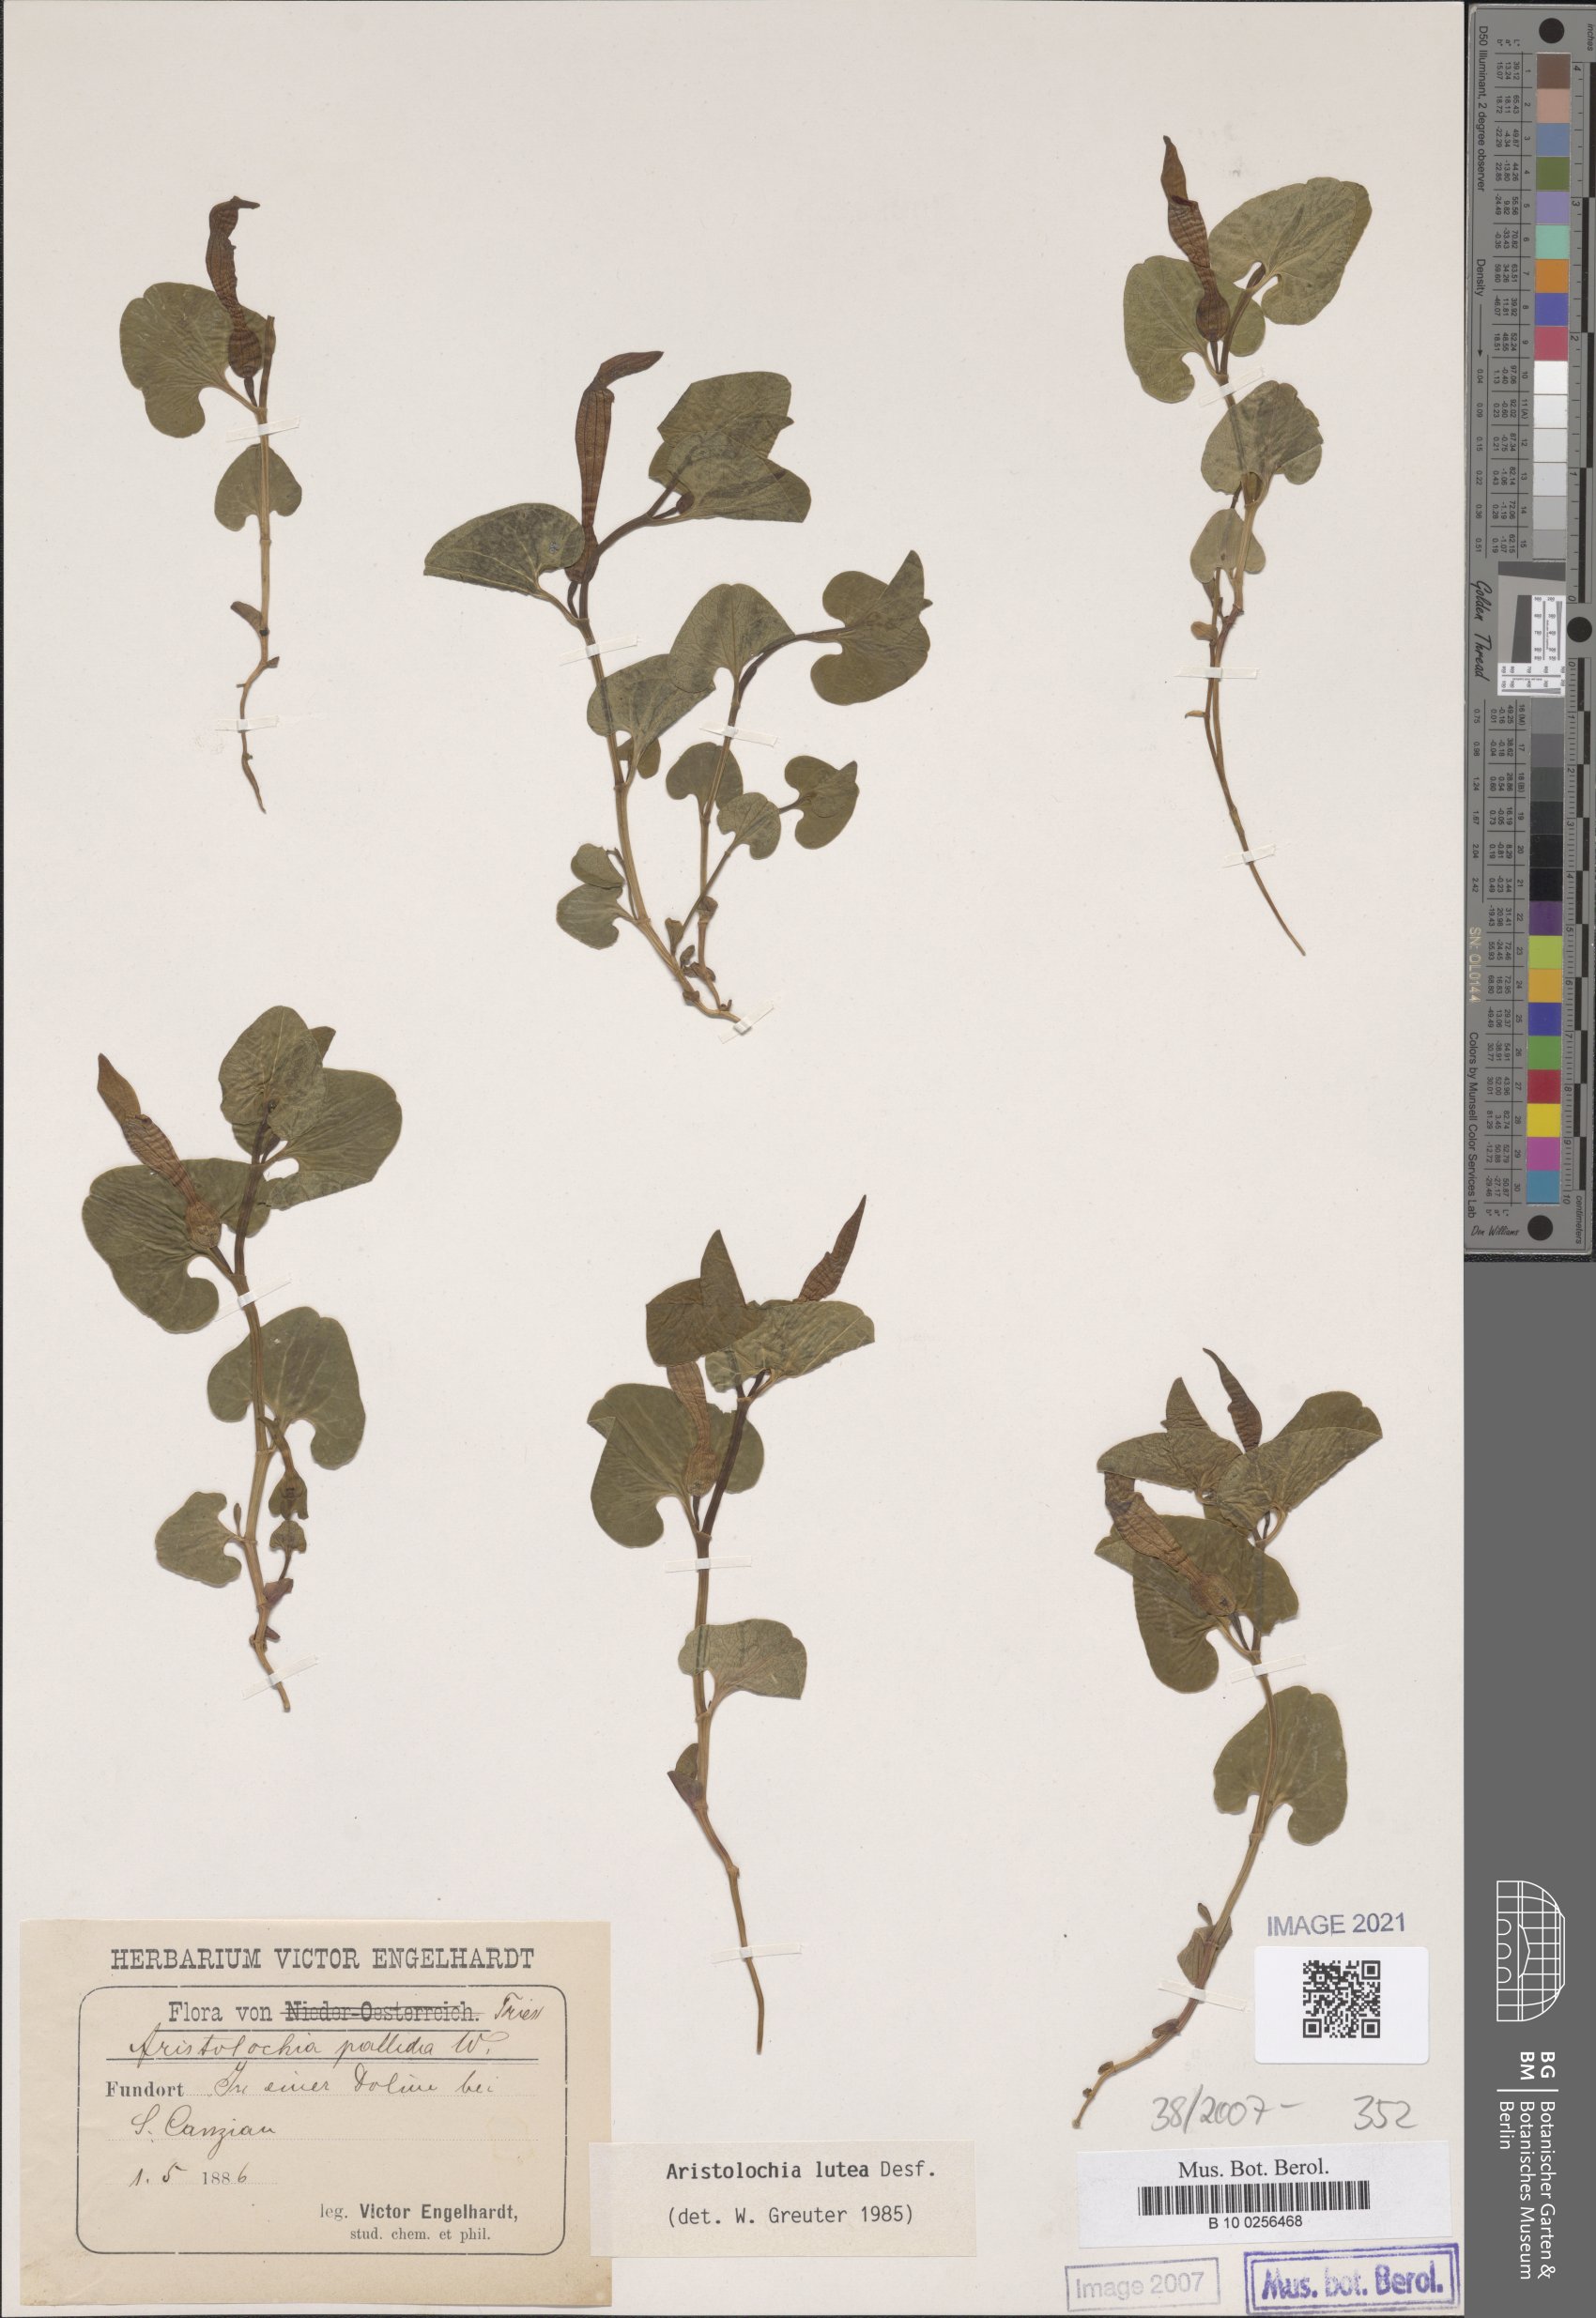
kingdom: Plantae
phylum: Tracheophyta
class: Magnoliopsida
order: Piperales
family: Aristolochiaceae
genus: Aristolochia
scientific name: Aristolochia lutea
